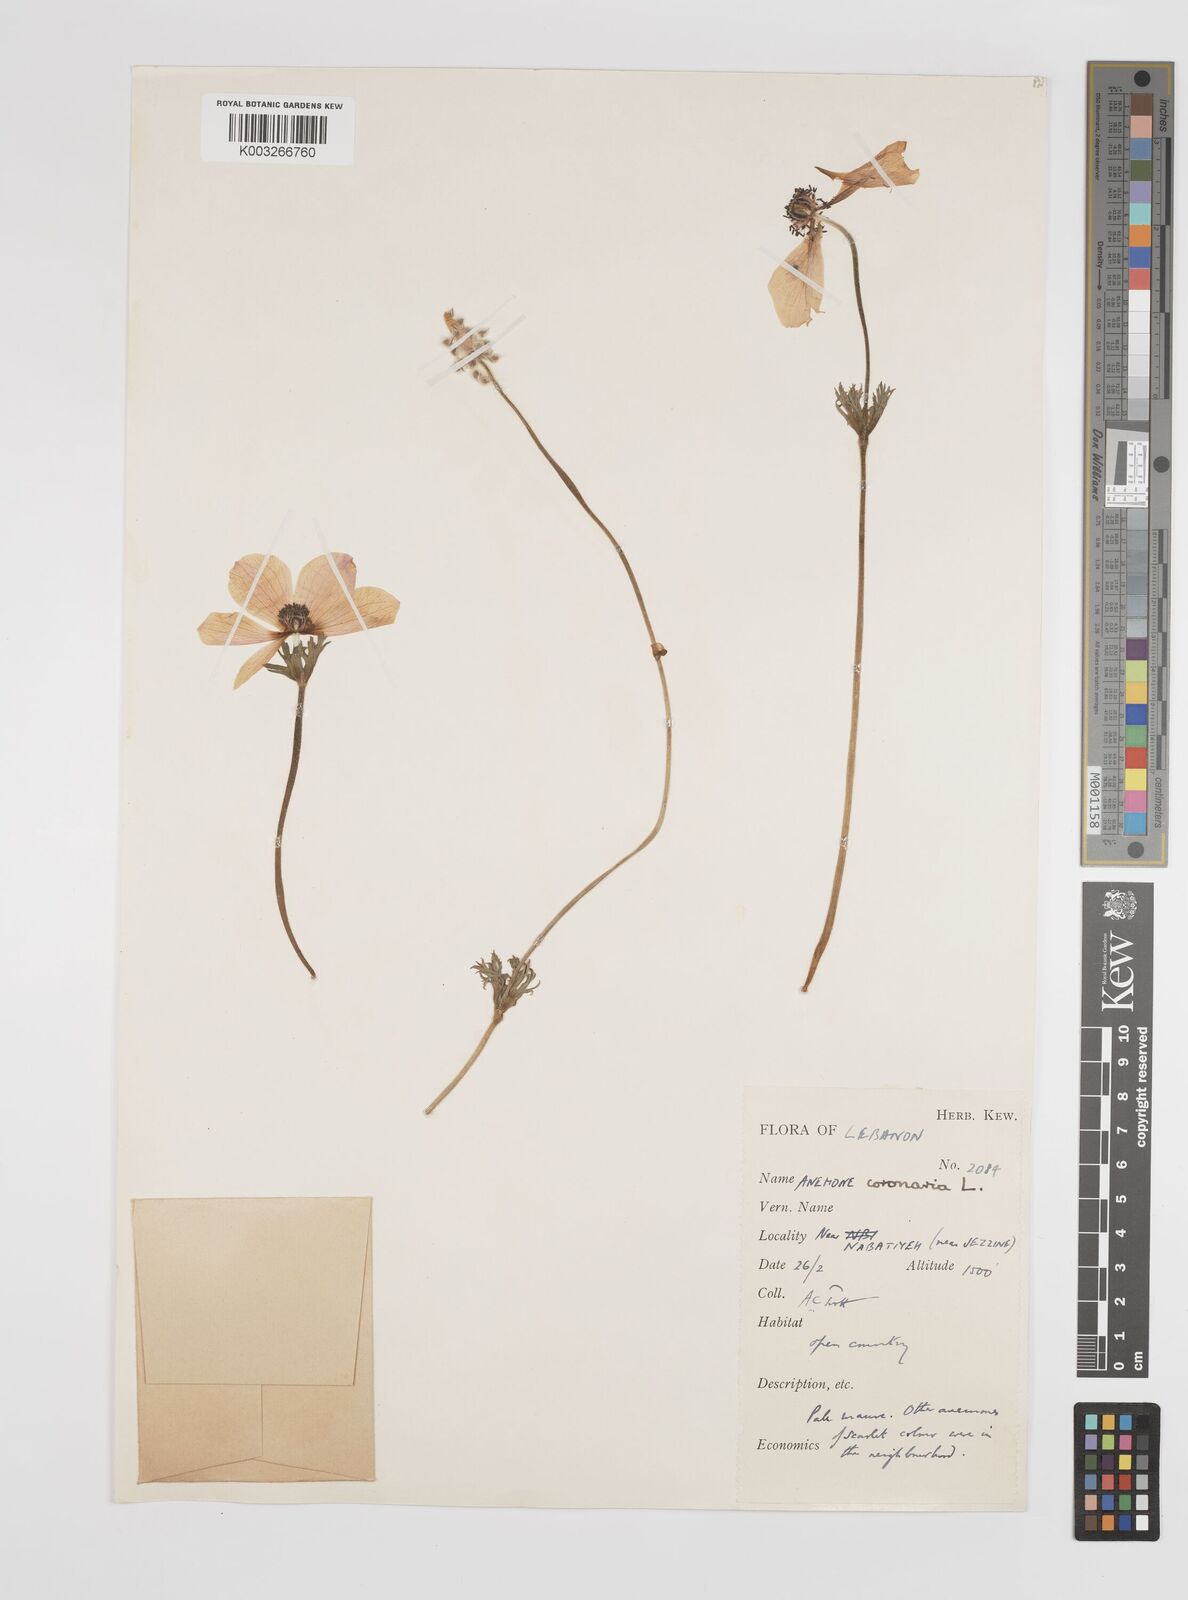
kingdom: Plantae
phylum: Tracheophyta
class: Magnoliopsida
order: Ranunculales
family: Ranunculaceae
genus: Anemone
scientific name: Anemone coronaria
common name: Poppy anemone
